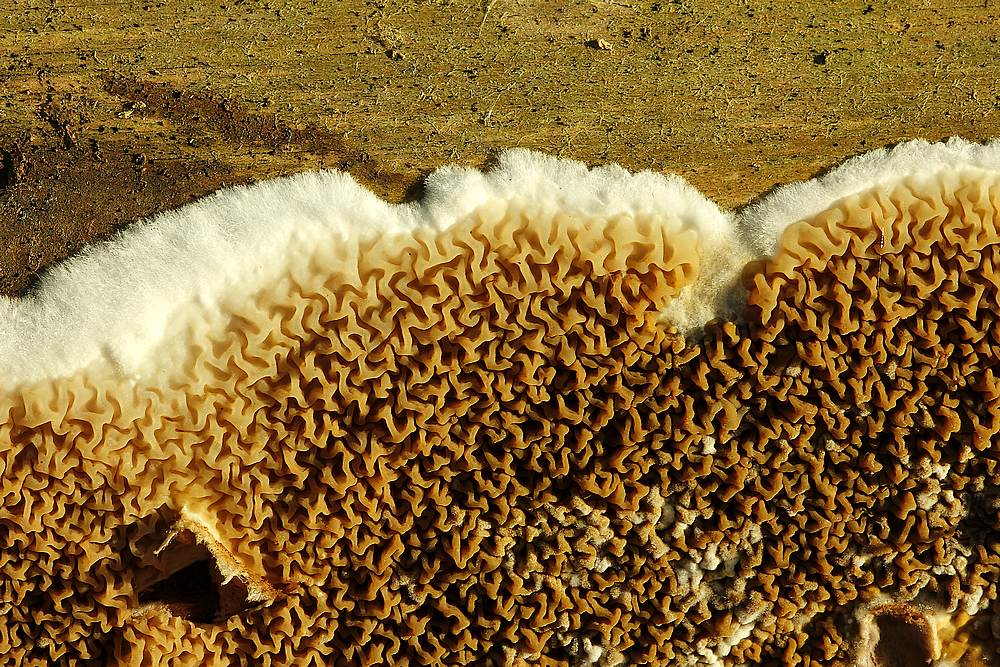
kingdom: Fungi
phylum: Basidiomycota
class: Agaricomycetes
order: Boletales
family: Serpulaceae
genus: Serpula
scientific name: Serpula himantioides
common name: tyndkødet hussvamp
